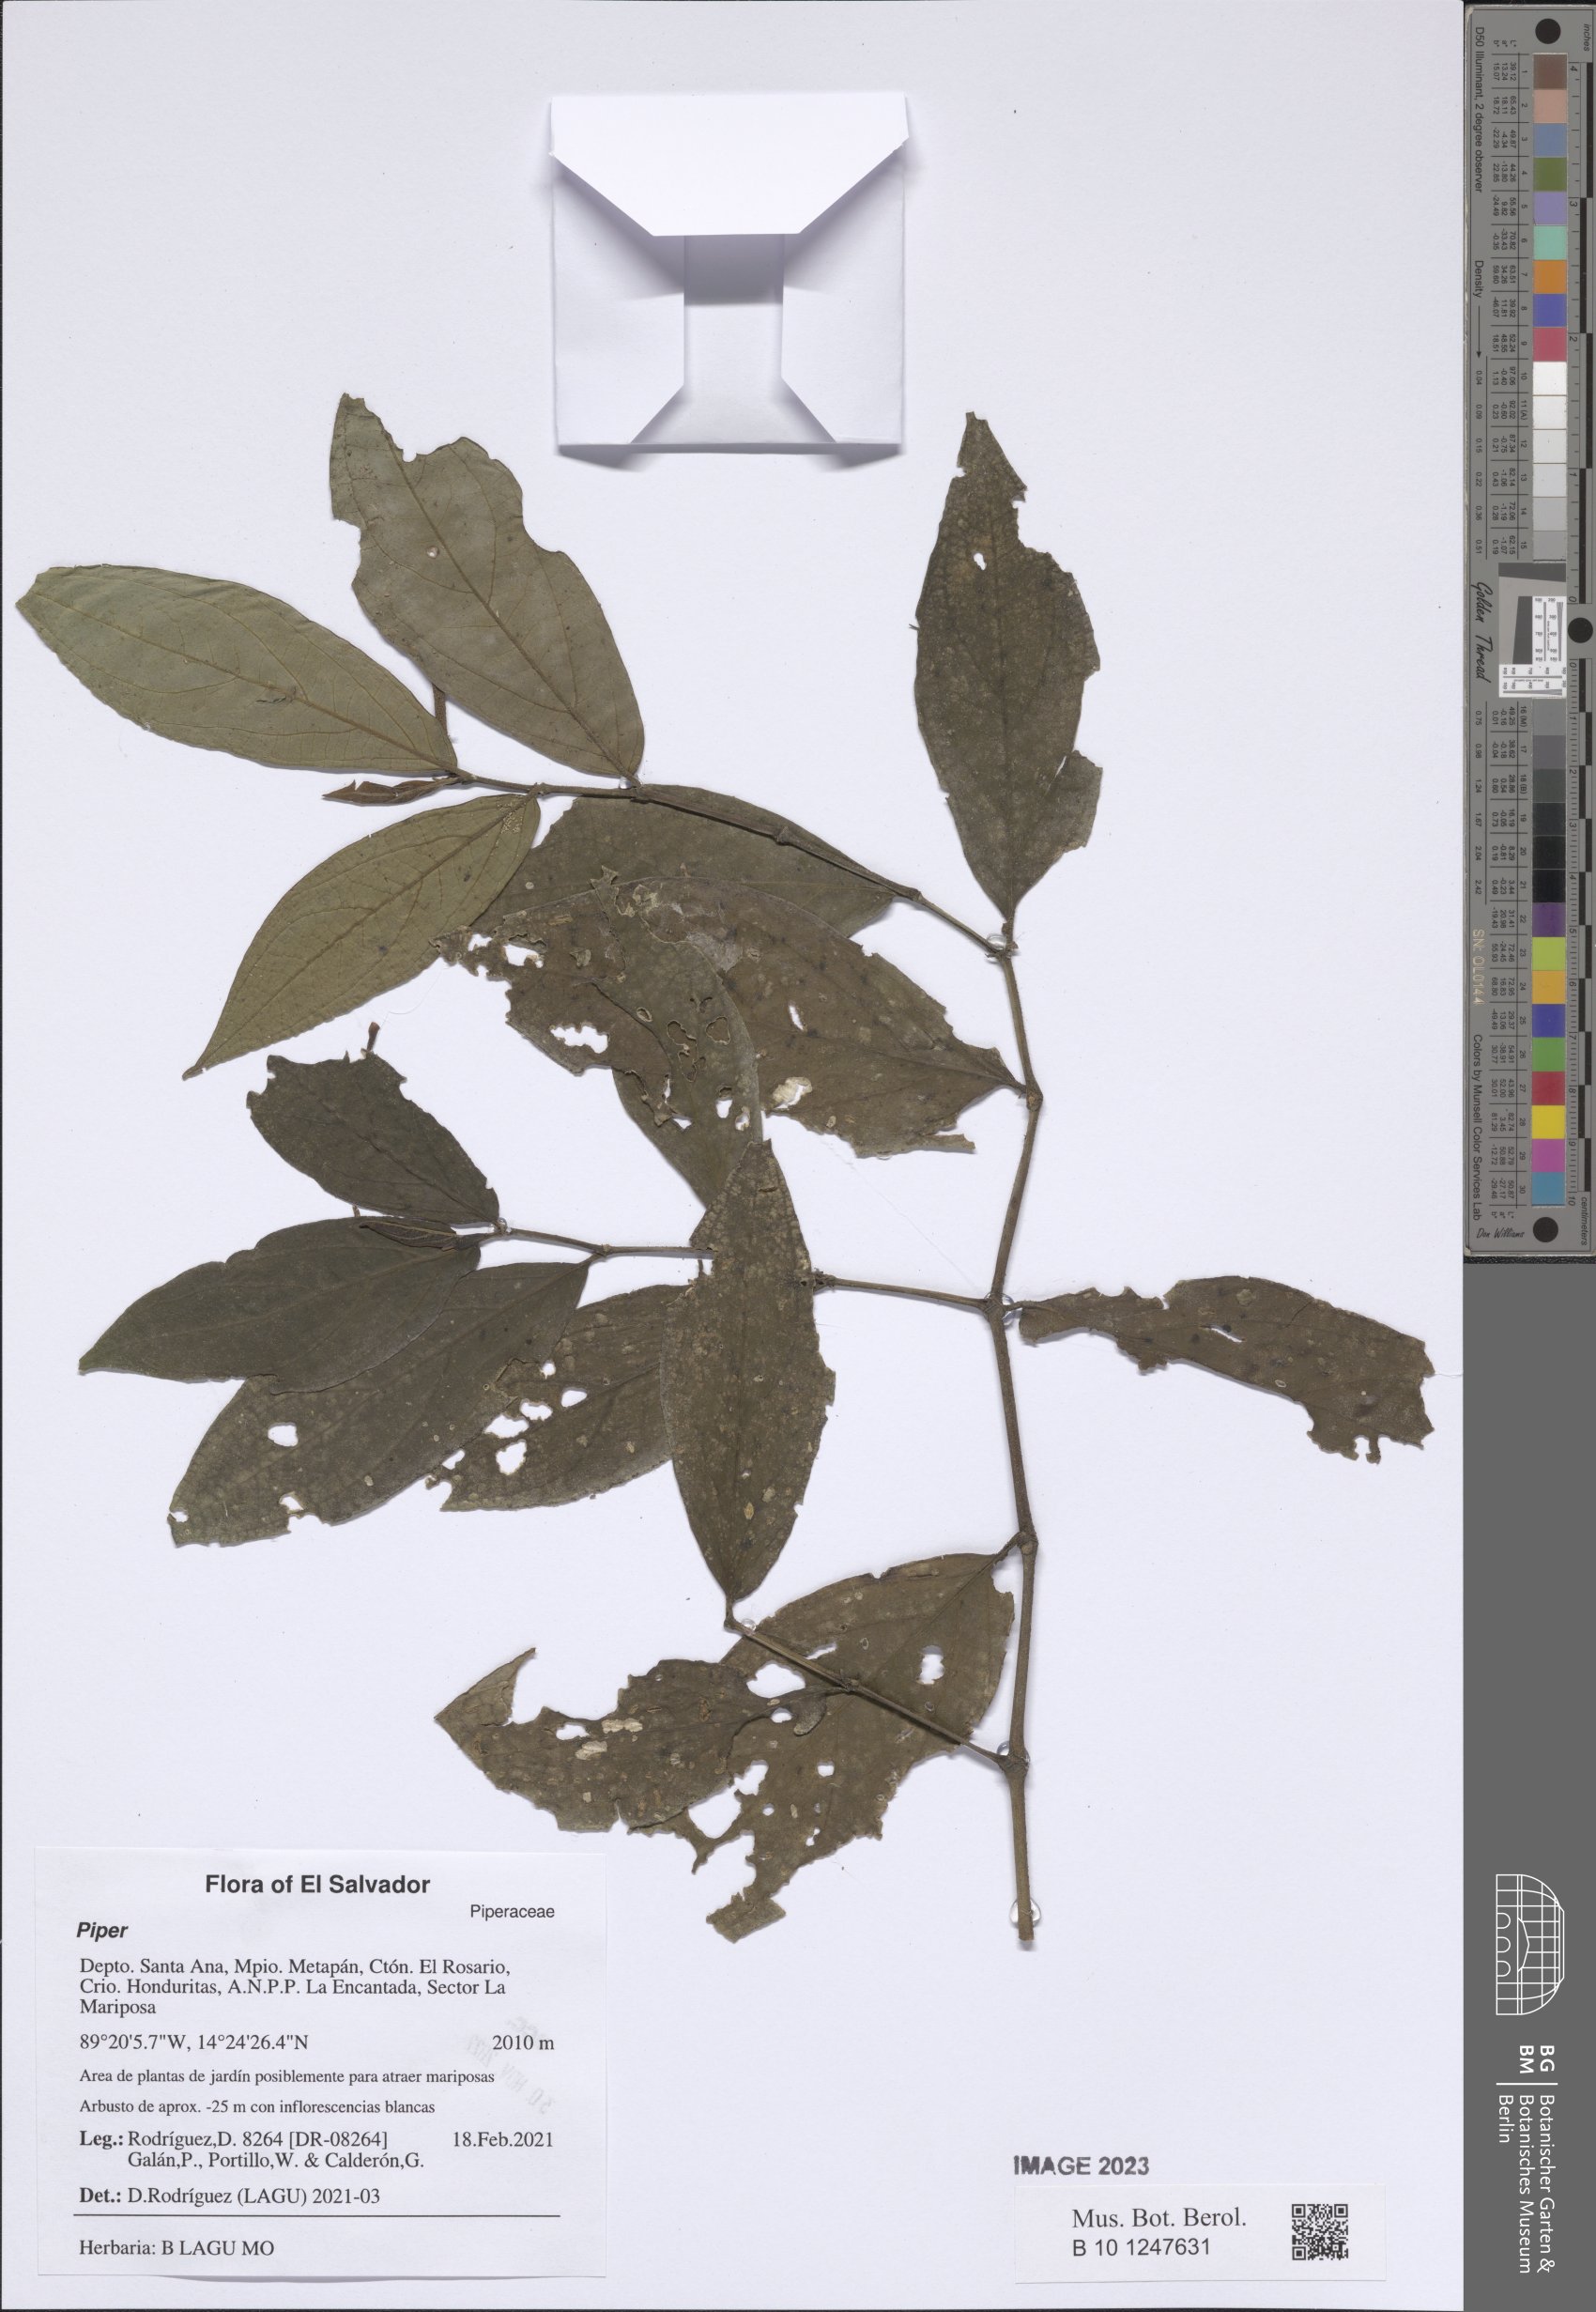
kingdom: Plantae
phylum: Tracheophyta
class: Magnoliopsida
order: Piperales
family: Piperaceae
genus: Piper
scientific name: Piper
